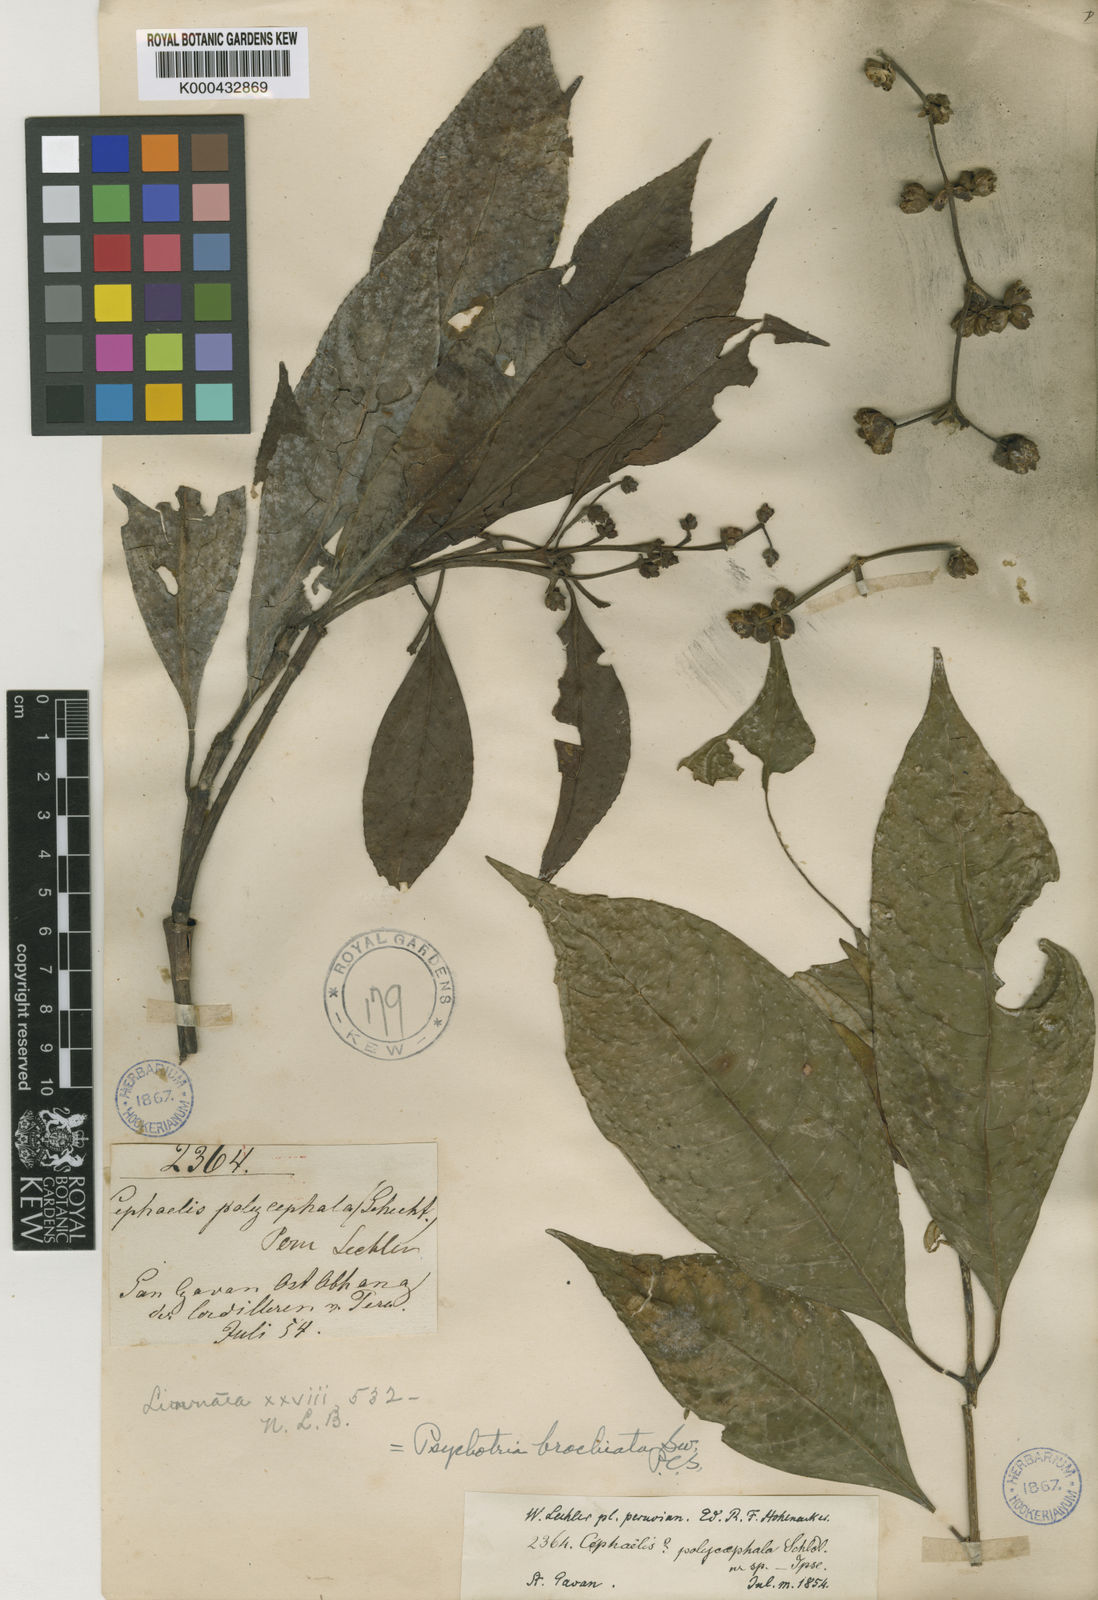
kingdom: Plantae
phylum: Tracheophyta
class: Magnoliopsida
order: Gentianales
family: Rubiaceae
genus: Palicourea
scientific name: Palicourea brachiata
